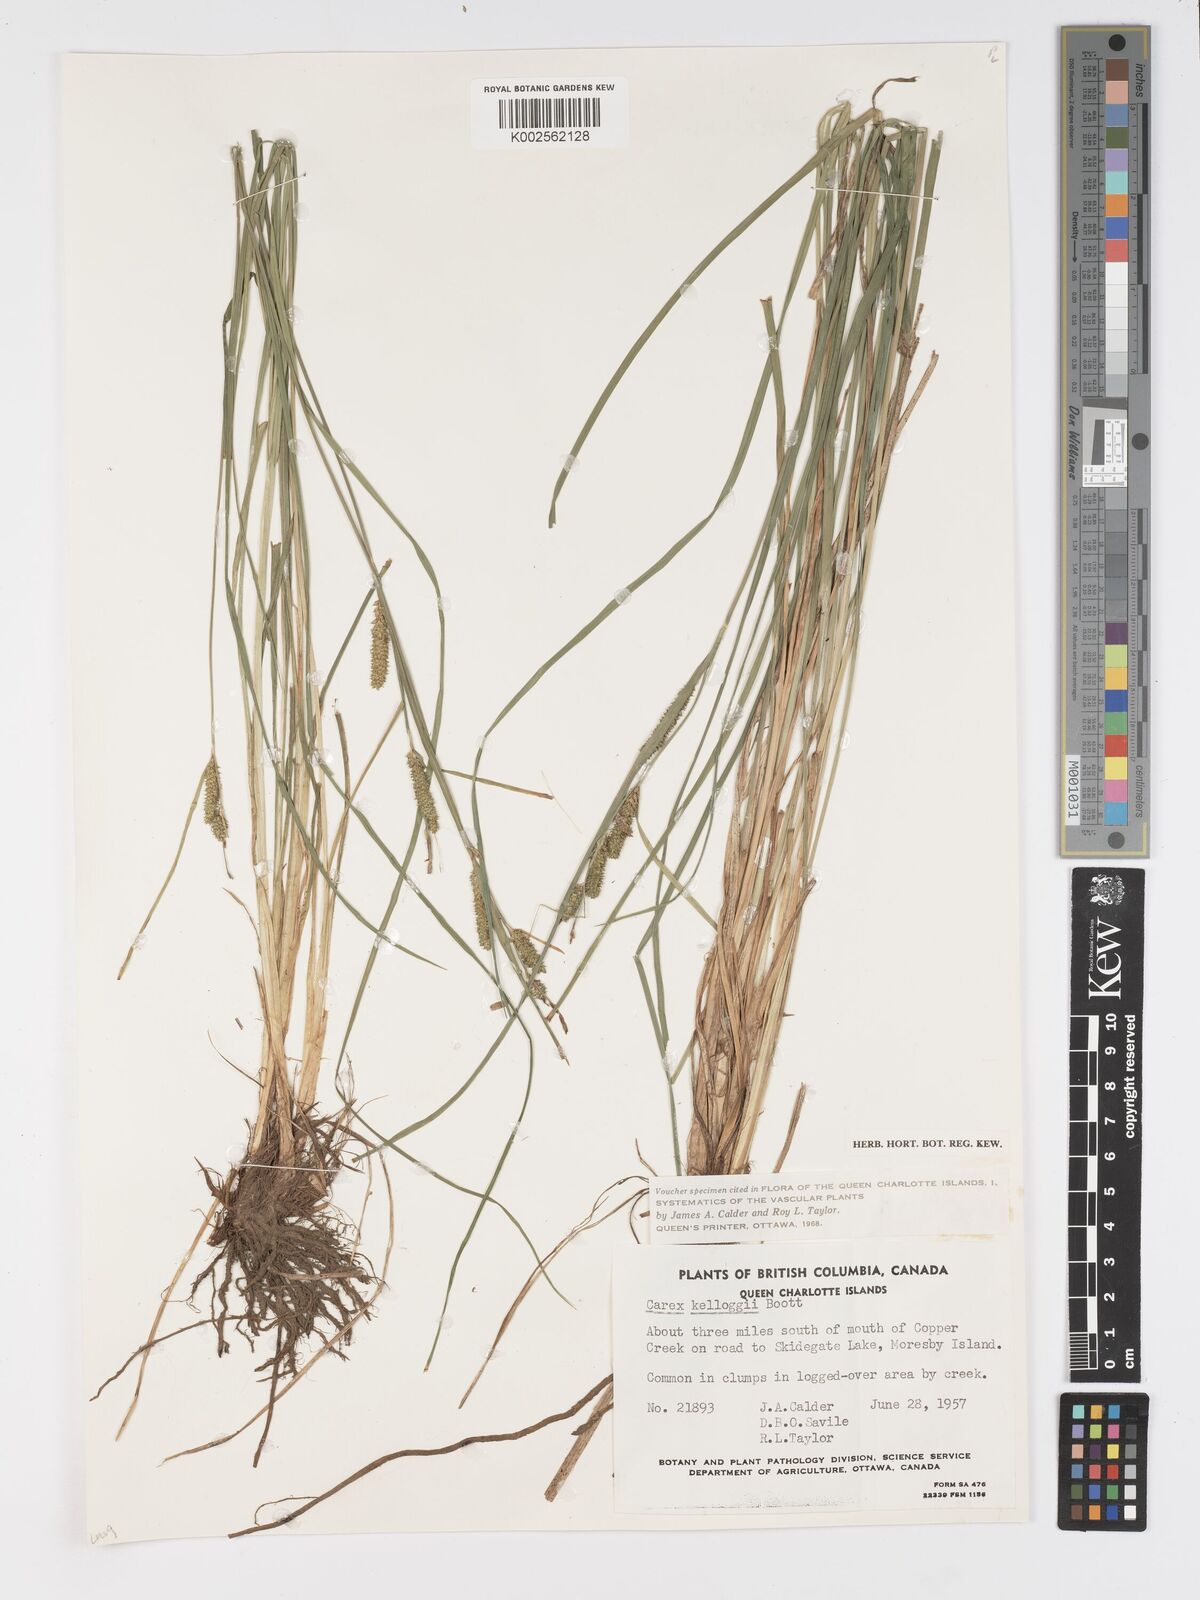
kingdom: Plantae
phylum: Tracheophyta
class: Liliopsida
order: Poales
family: Cyperaceae
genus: Carex
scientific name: Carex kelloggii
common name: Kellogg's sedge
